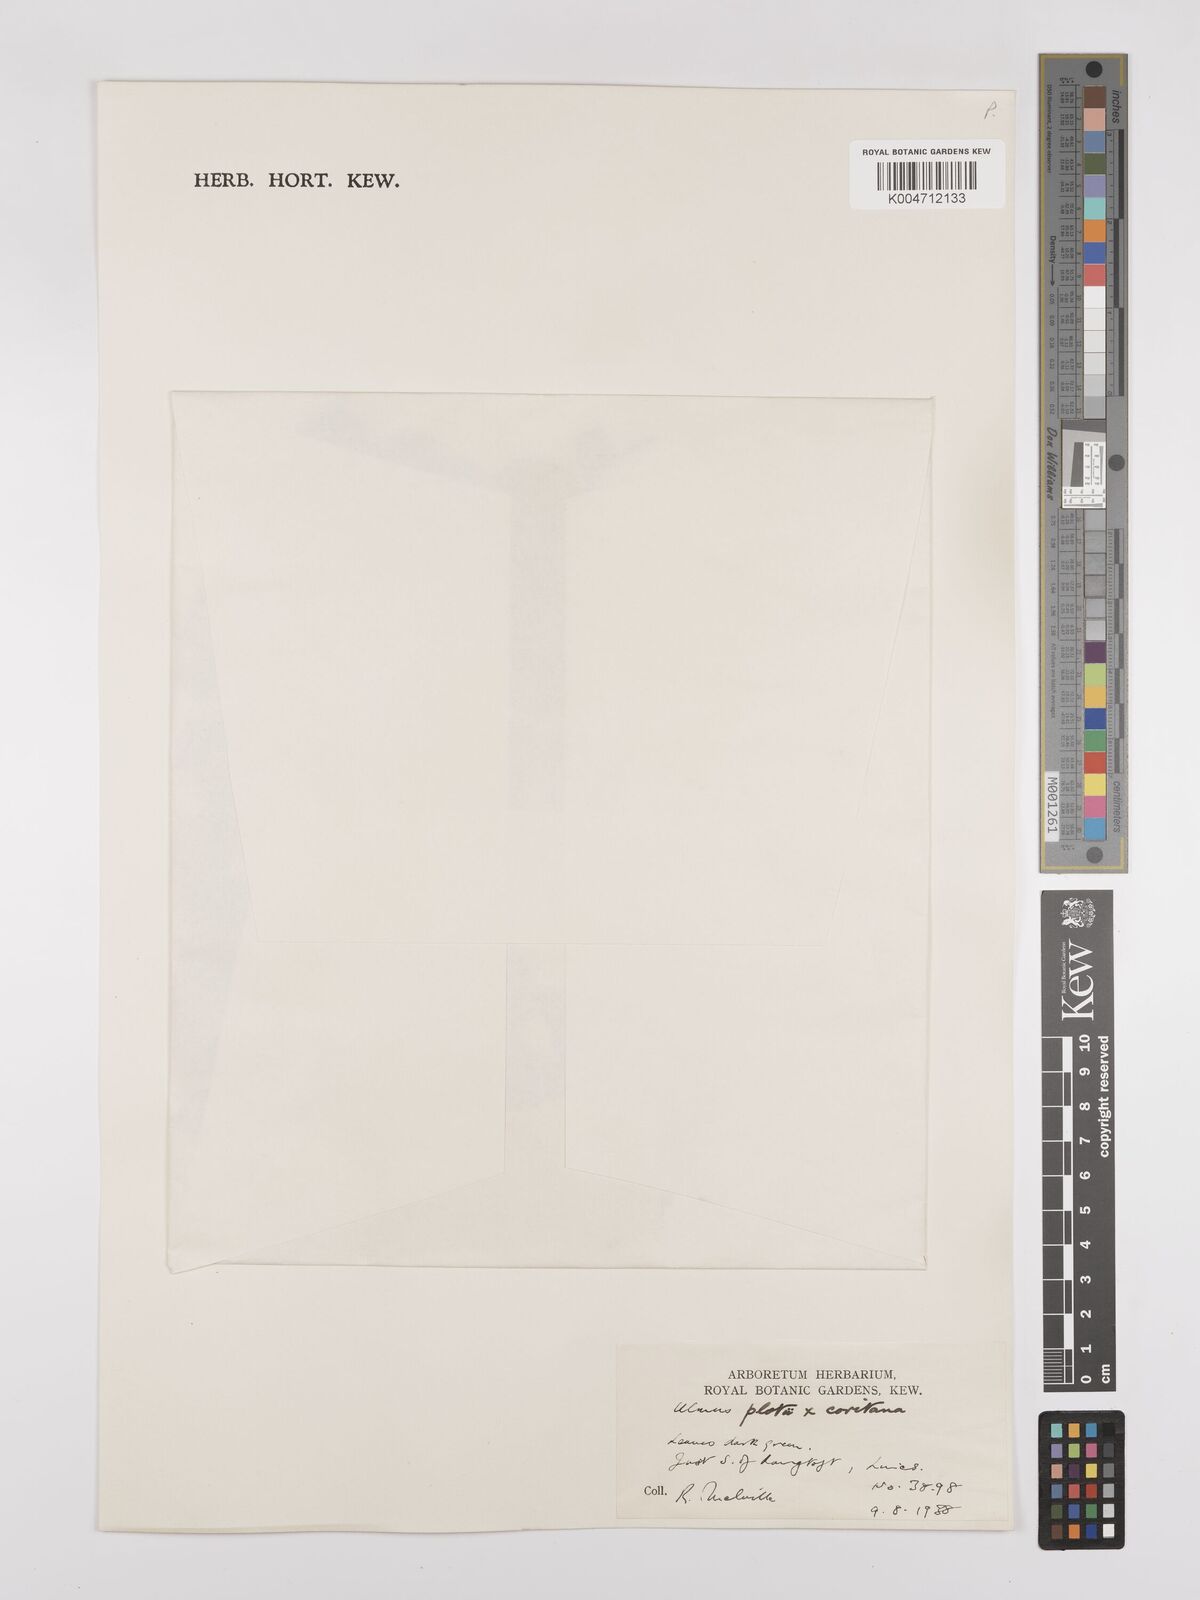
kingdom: Plantae
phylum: Tracheophyta
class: Magnoliopsida
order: Rosales
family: Ulmaceae
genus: Ulmus
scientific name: Ulmus minor
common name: Small-leaved elm
